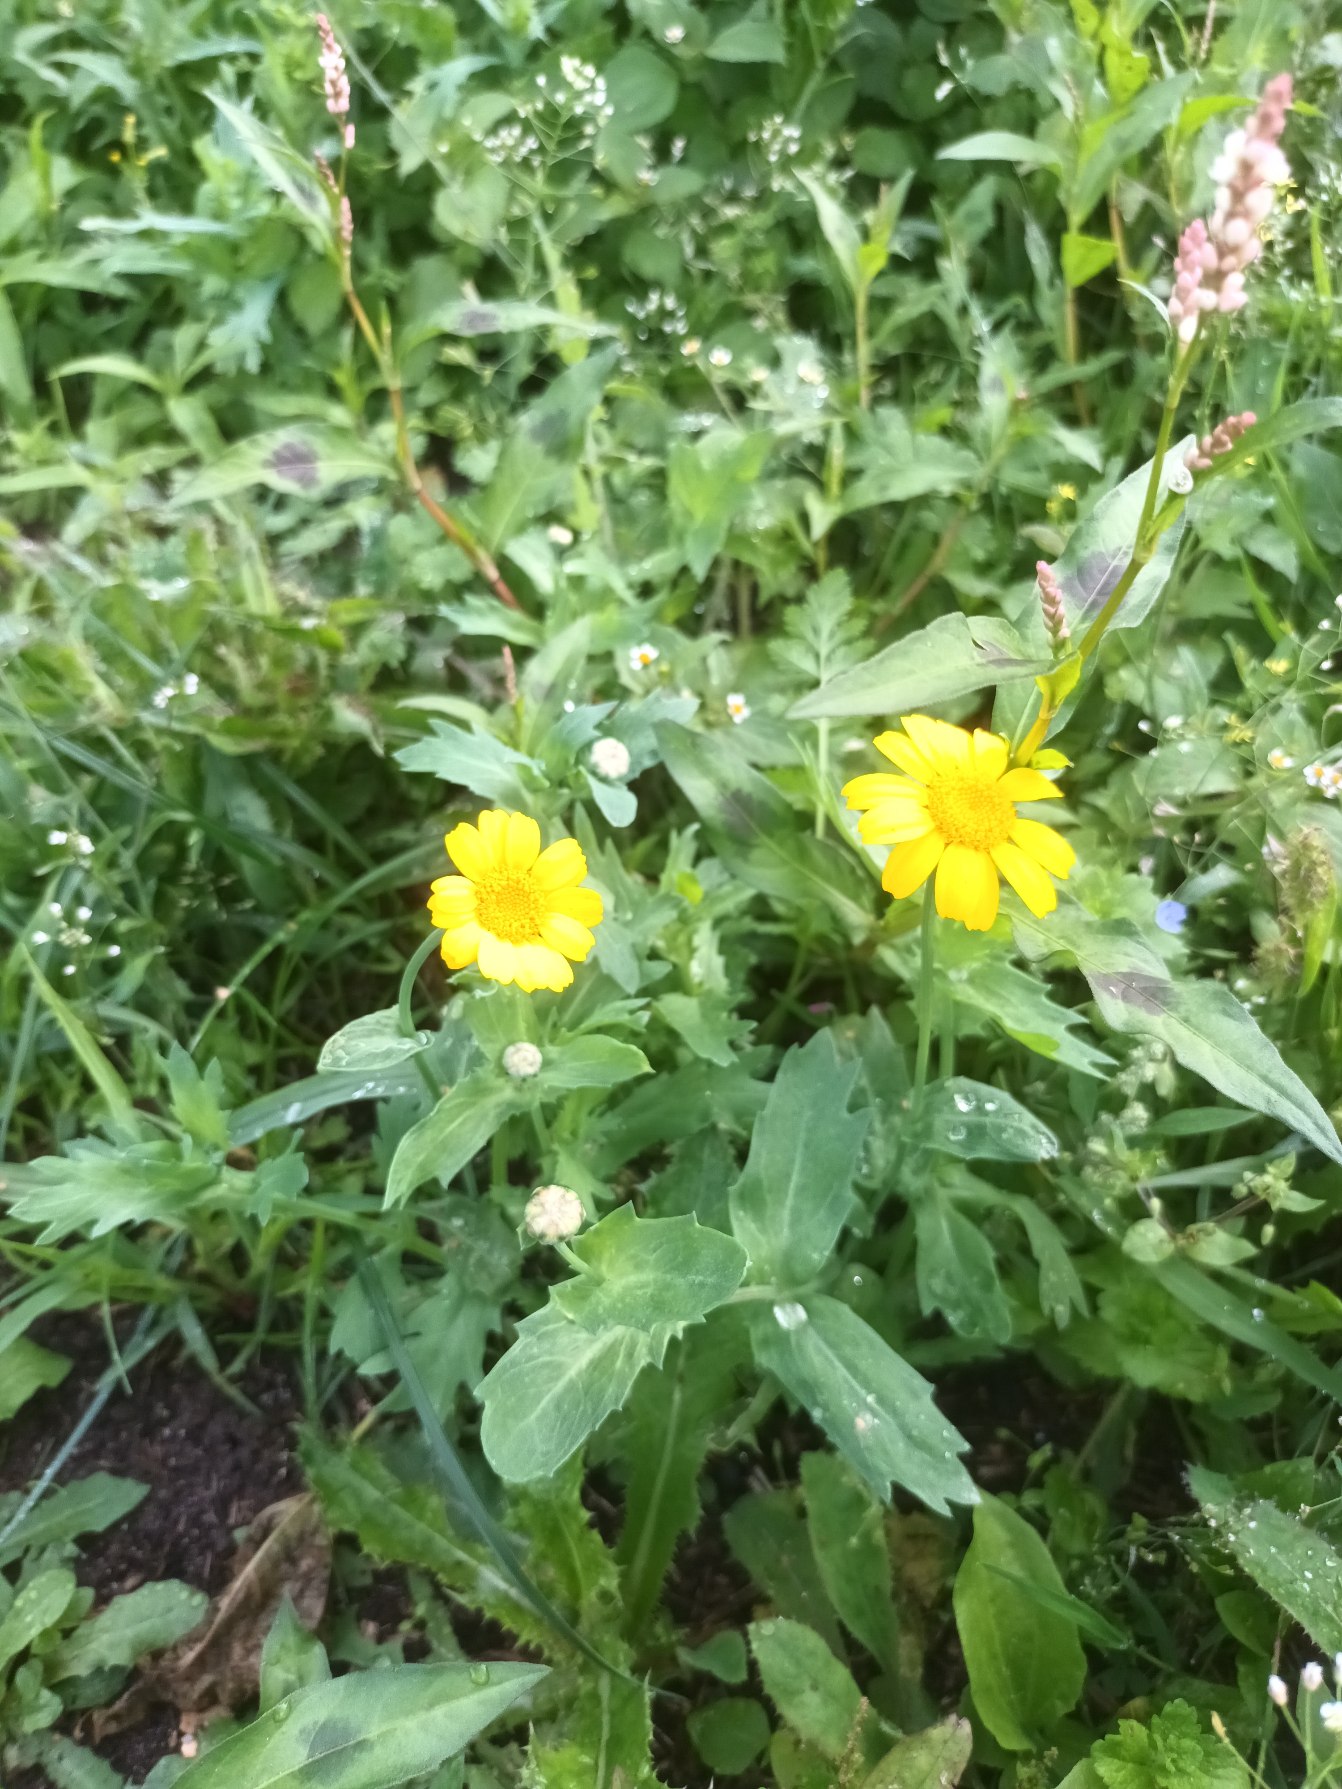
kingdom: Plantae
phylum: Tracheophyta
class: Magnoliopsida
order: Asterales
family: Asteraceae
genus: Glebionis
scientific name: Glebionis segetum
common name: Gul okseøje
